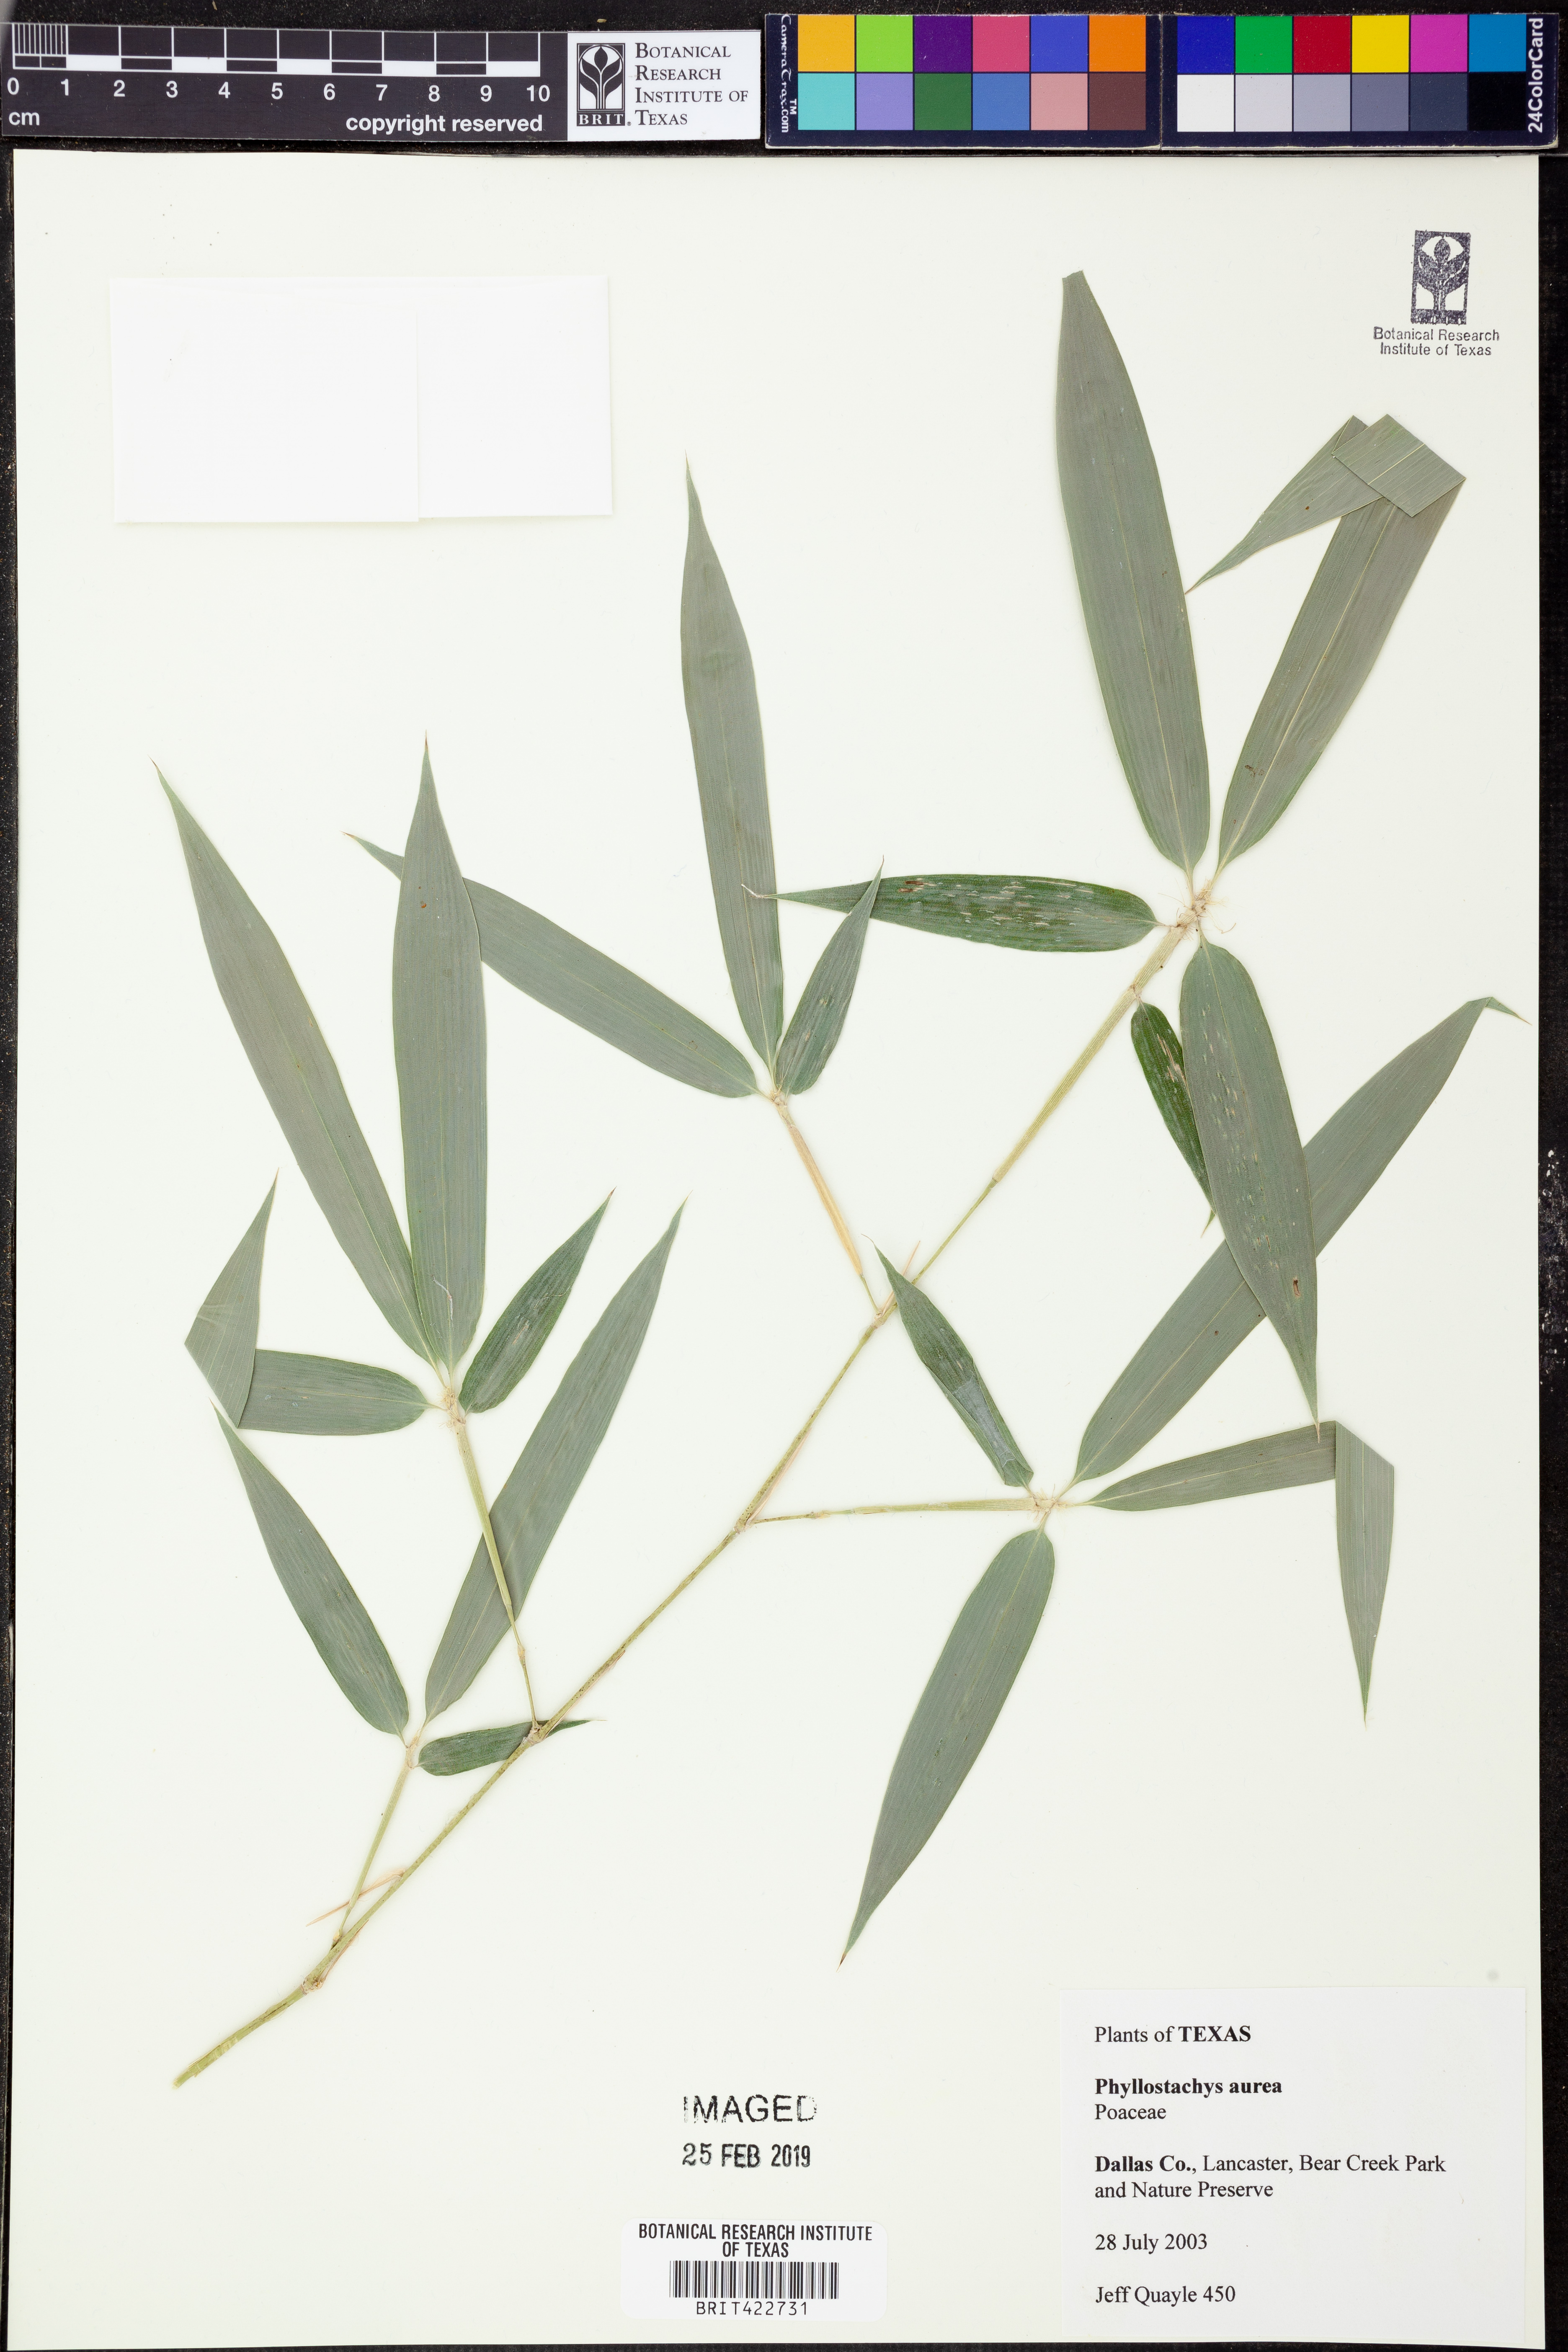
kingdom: Plantae
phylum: Tracheophyta
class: Liliopsida
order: Poales
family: Poaceae
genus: Phyllostachys
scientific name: Phyllostachys aurea
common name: Golden bamboo
